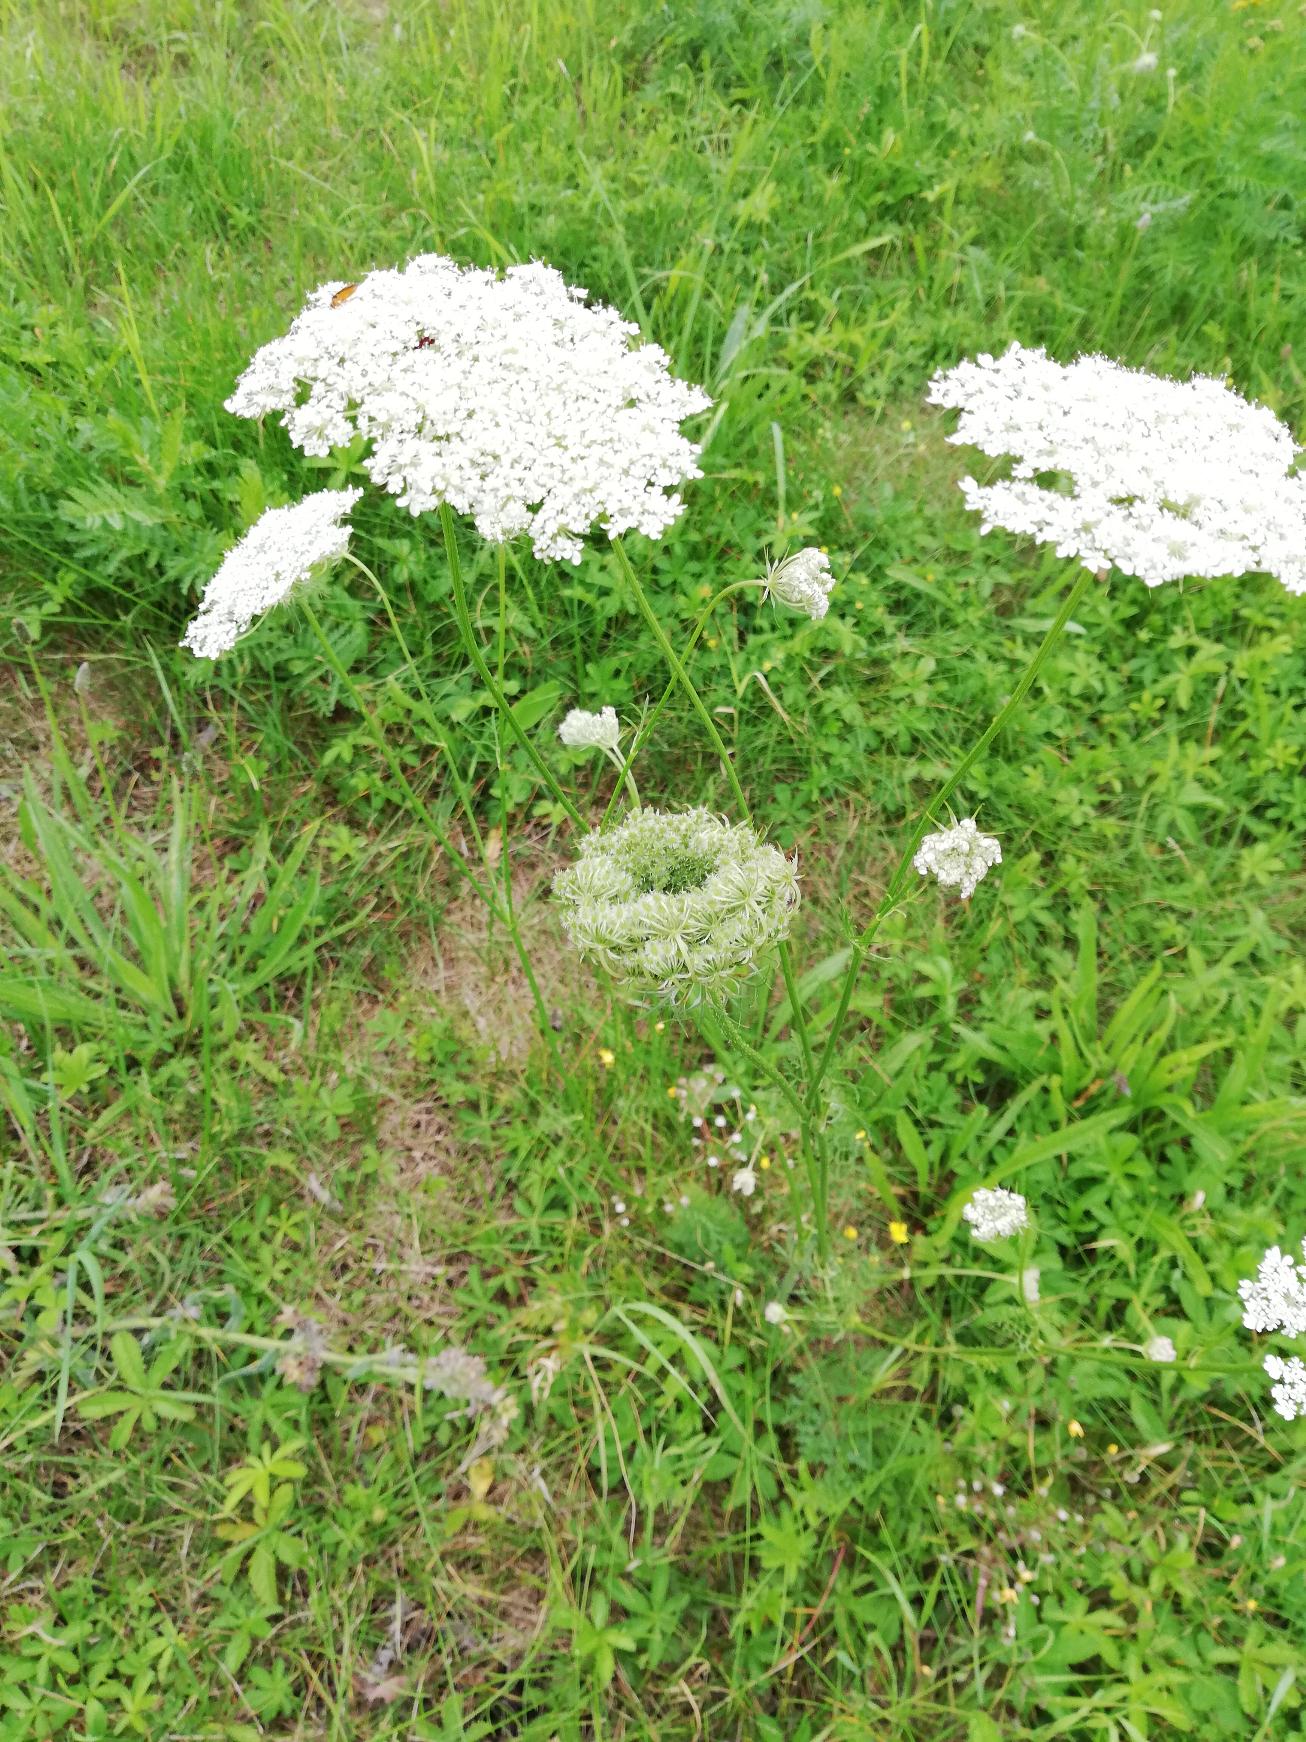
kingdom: Plantae
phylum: Tracheophyta
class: Magnoliopsida
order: Apiales
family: Apiaceae
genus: Daucus
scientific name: Daucus carota
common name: Gulerod
